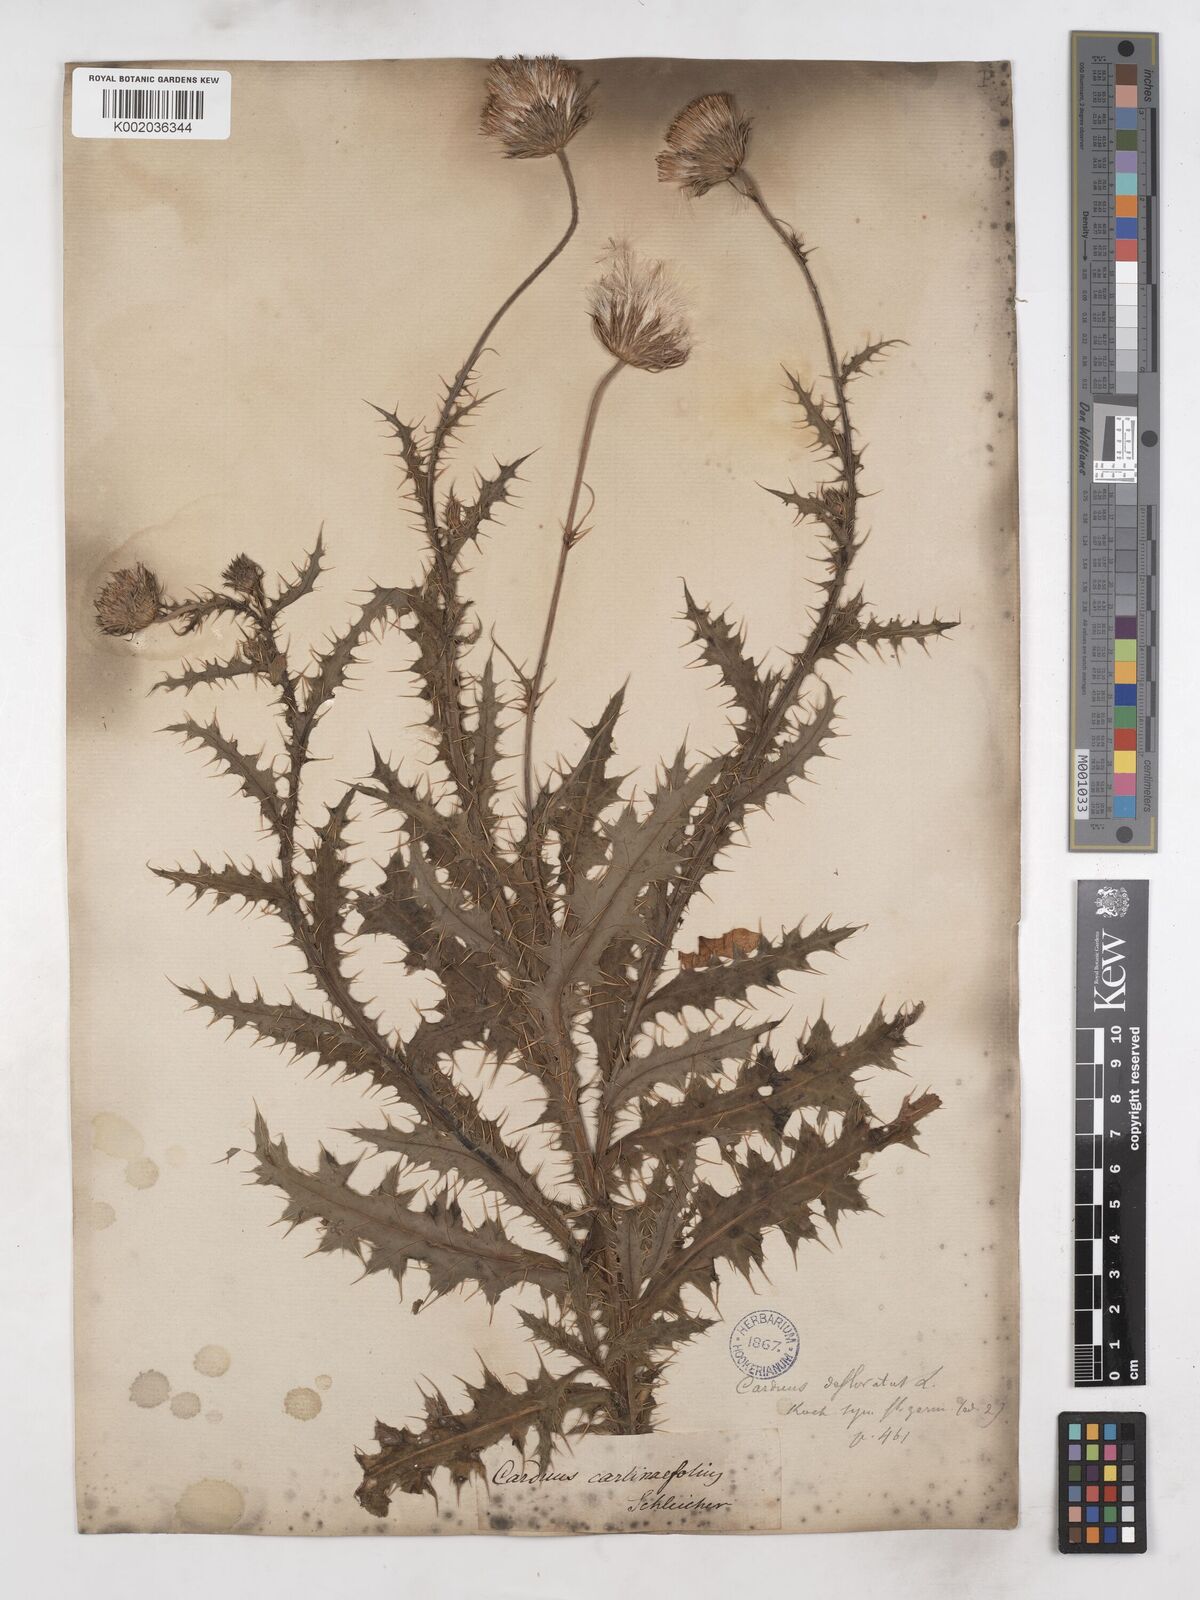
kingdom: Plantae
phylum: Tracheophyta
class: Magnoliopsida
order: Asterales
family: Asteraceae
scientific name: Asteraceae
